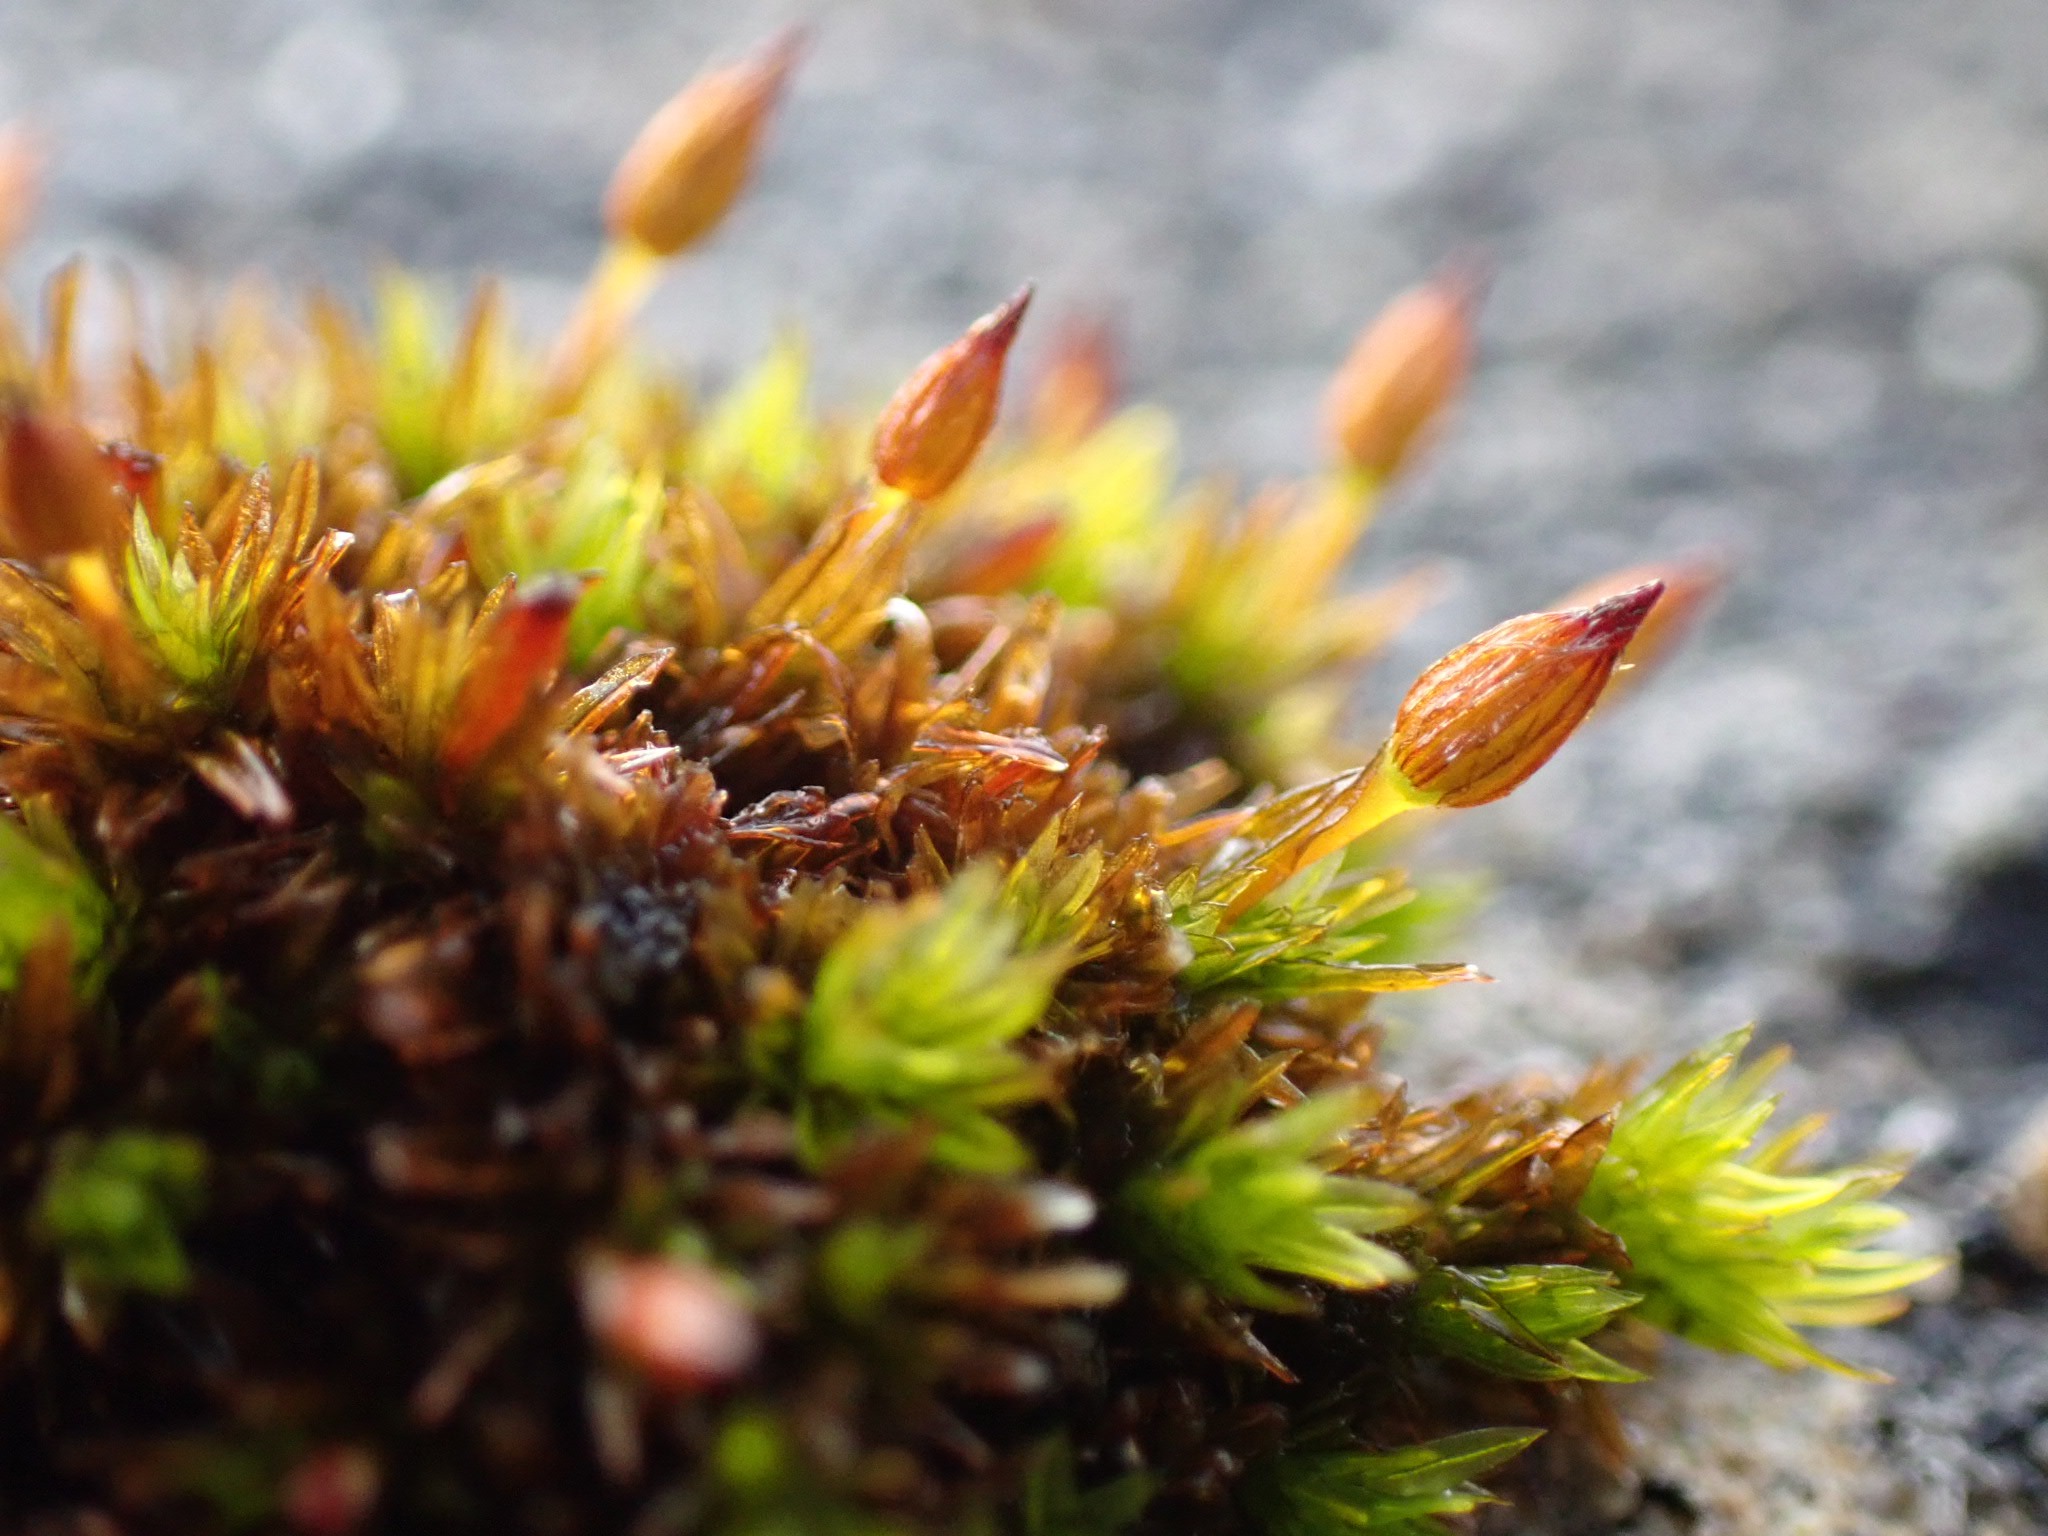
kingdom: Plantae
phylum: Bryophyta
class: Bryopsida
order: Orthotrichales
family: Orthotrichaceae
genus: Orthotrichum
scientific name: Orthotrichum anomalum
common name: Mørk furehætte
